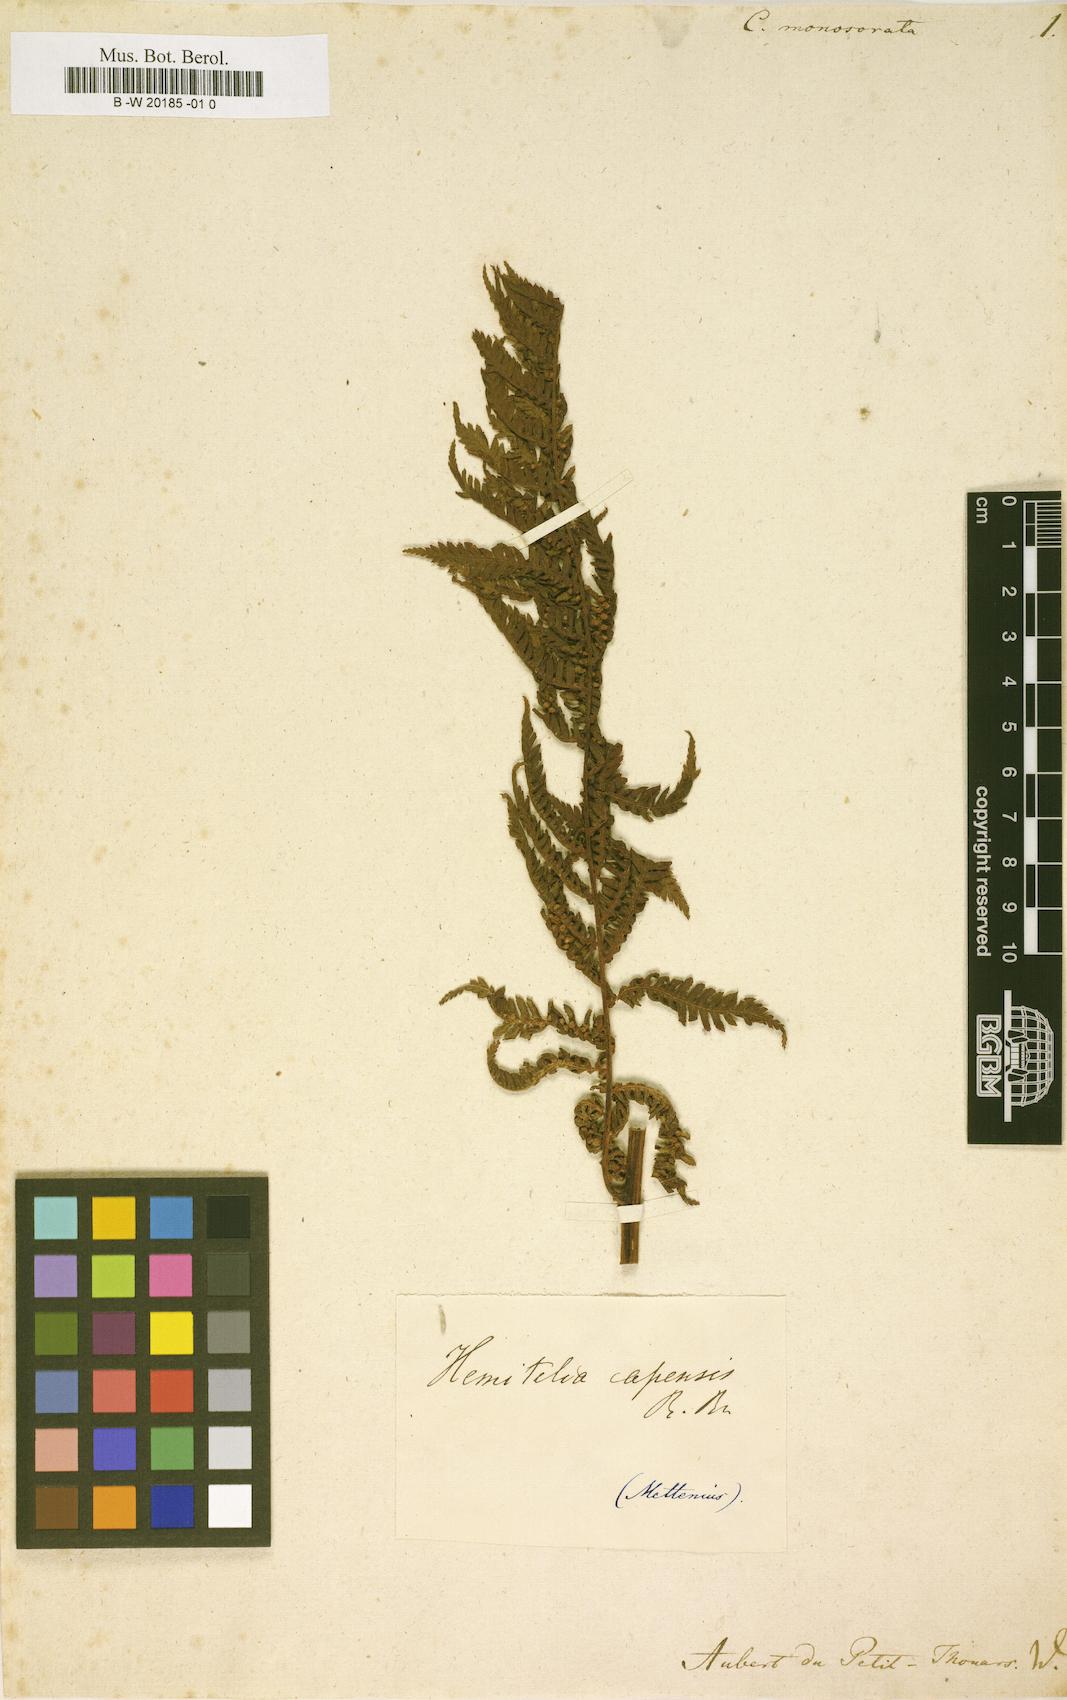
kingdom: Plantae
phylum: Tracheophyta
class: Polypodiopsida
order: Cyatheales
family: Cyatheaceae
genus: Cyathea
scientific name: Cyathea
